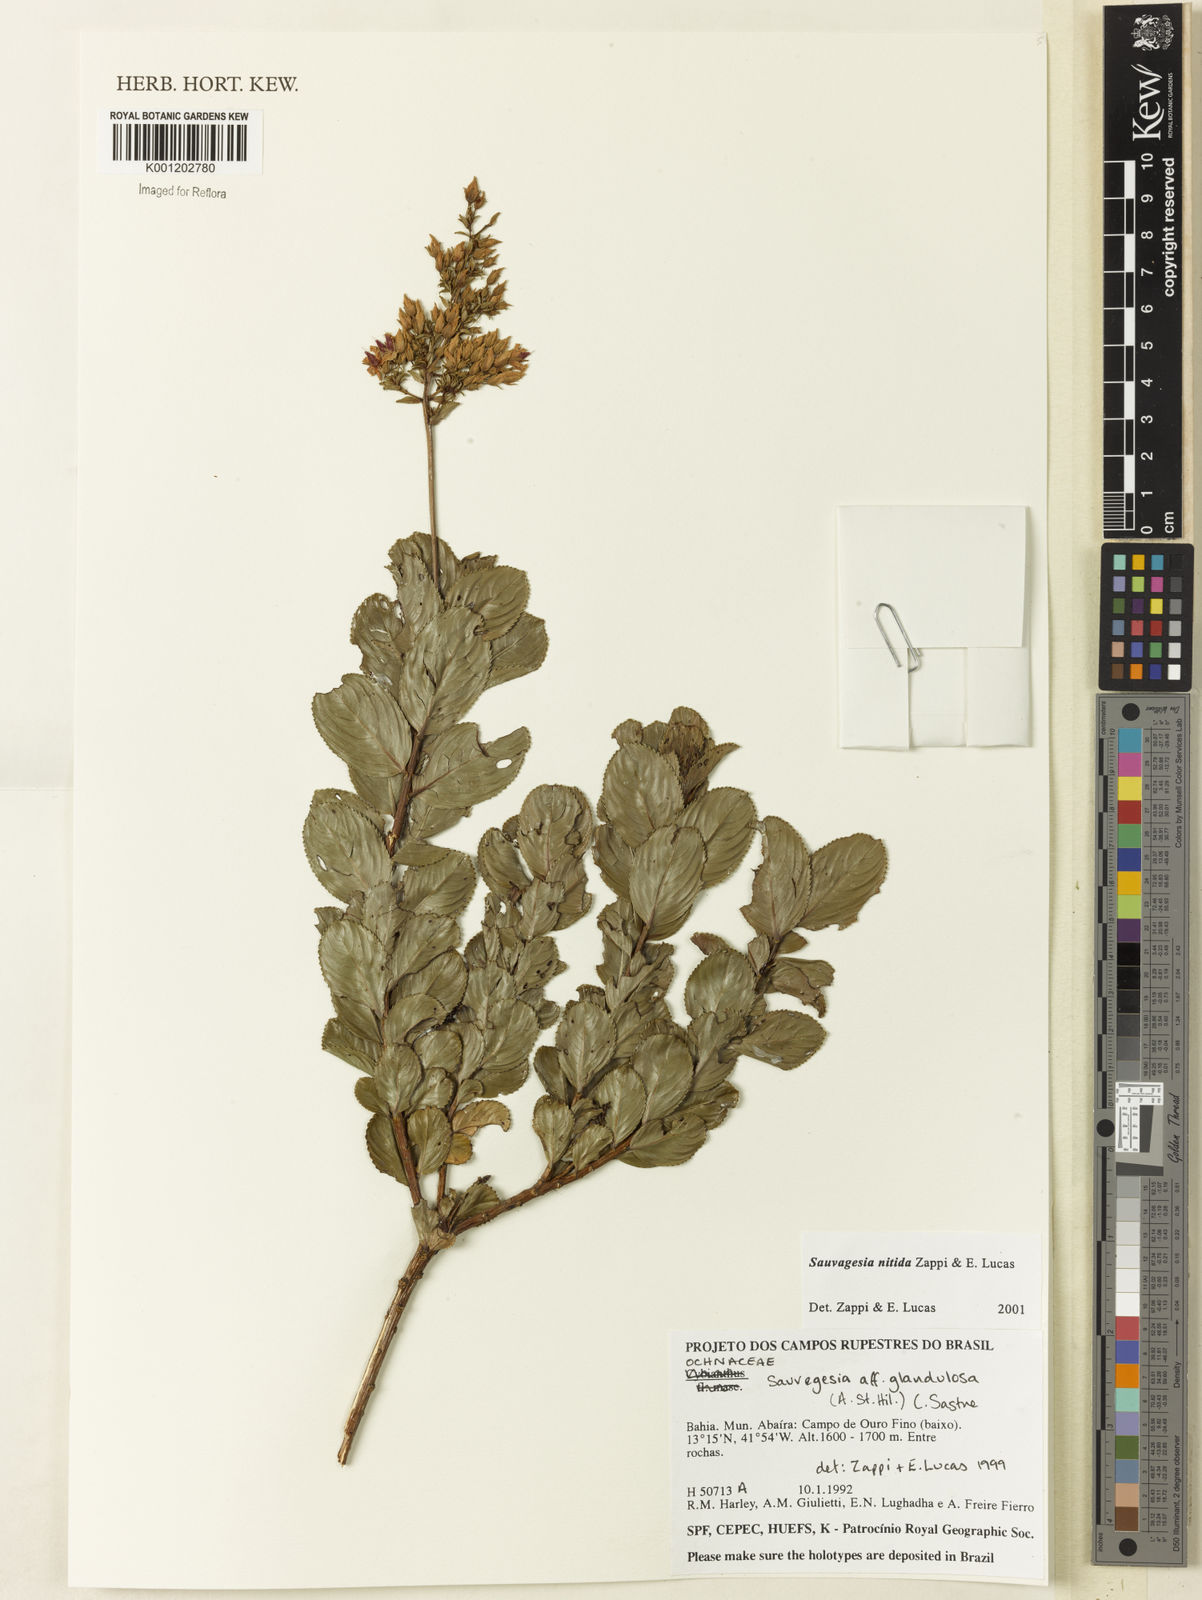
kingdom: Plantae
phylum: Tracheophyta
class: Magnoliopsida
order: Malpighiales
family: Ochnaceae
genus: Sauvagesia
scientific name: Sauvagesia nitida
